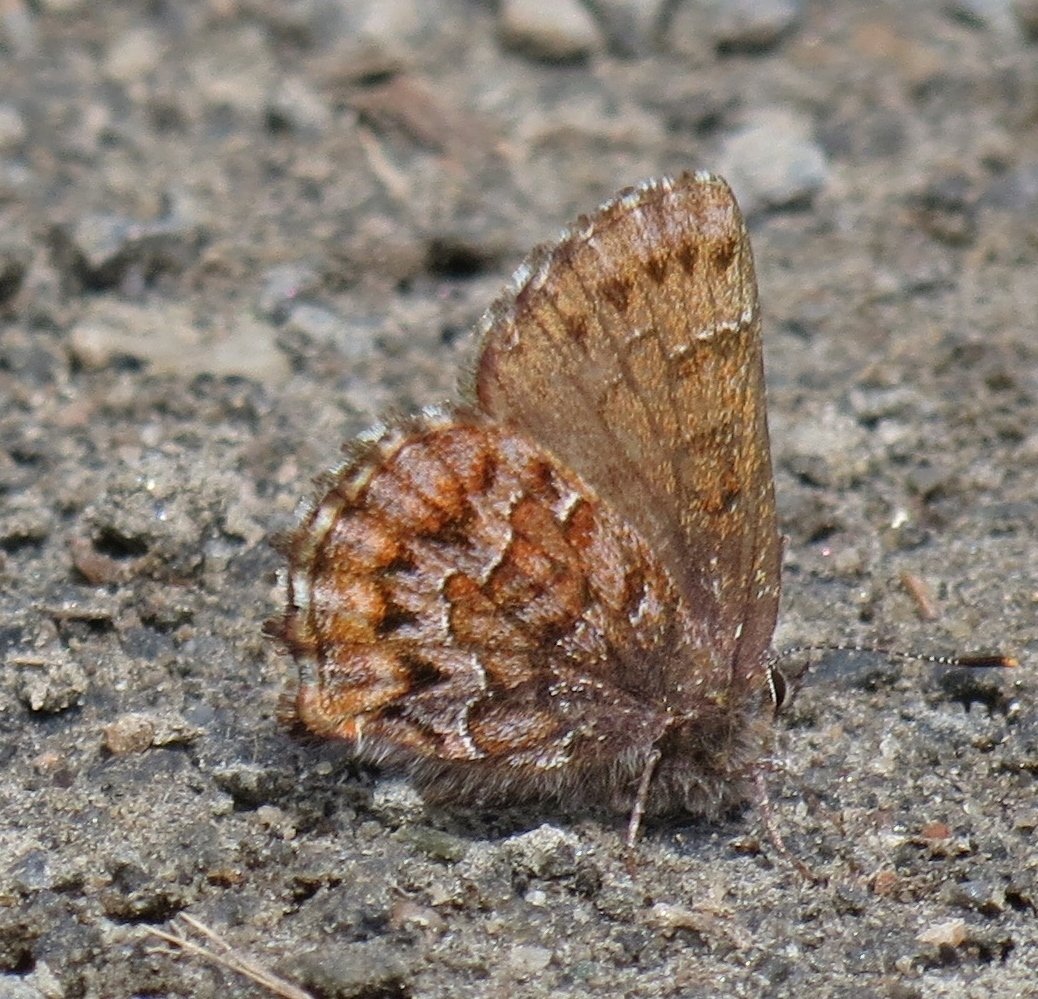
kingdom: Animalia
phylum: Arthropoda
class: Insecta
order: Lepidoptera
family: Lycaenidae
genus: Incisalia
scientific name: Incisalia niphon
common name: Eastern Pine Elfin
